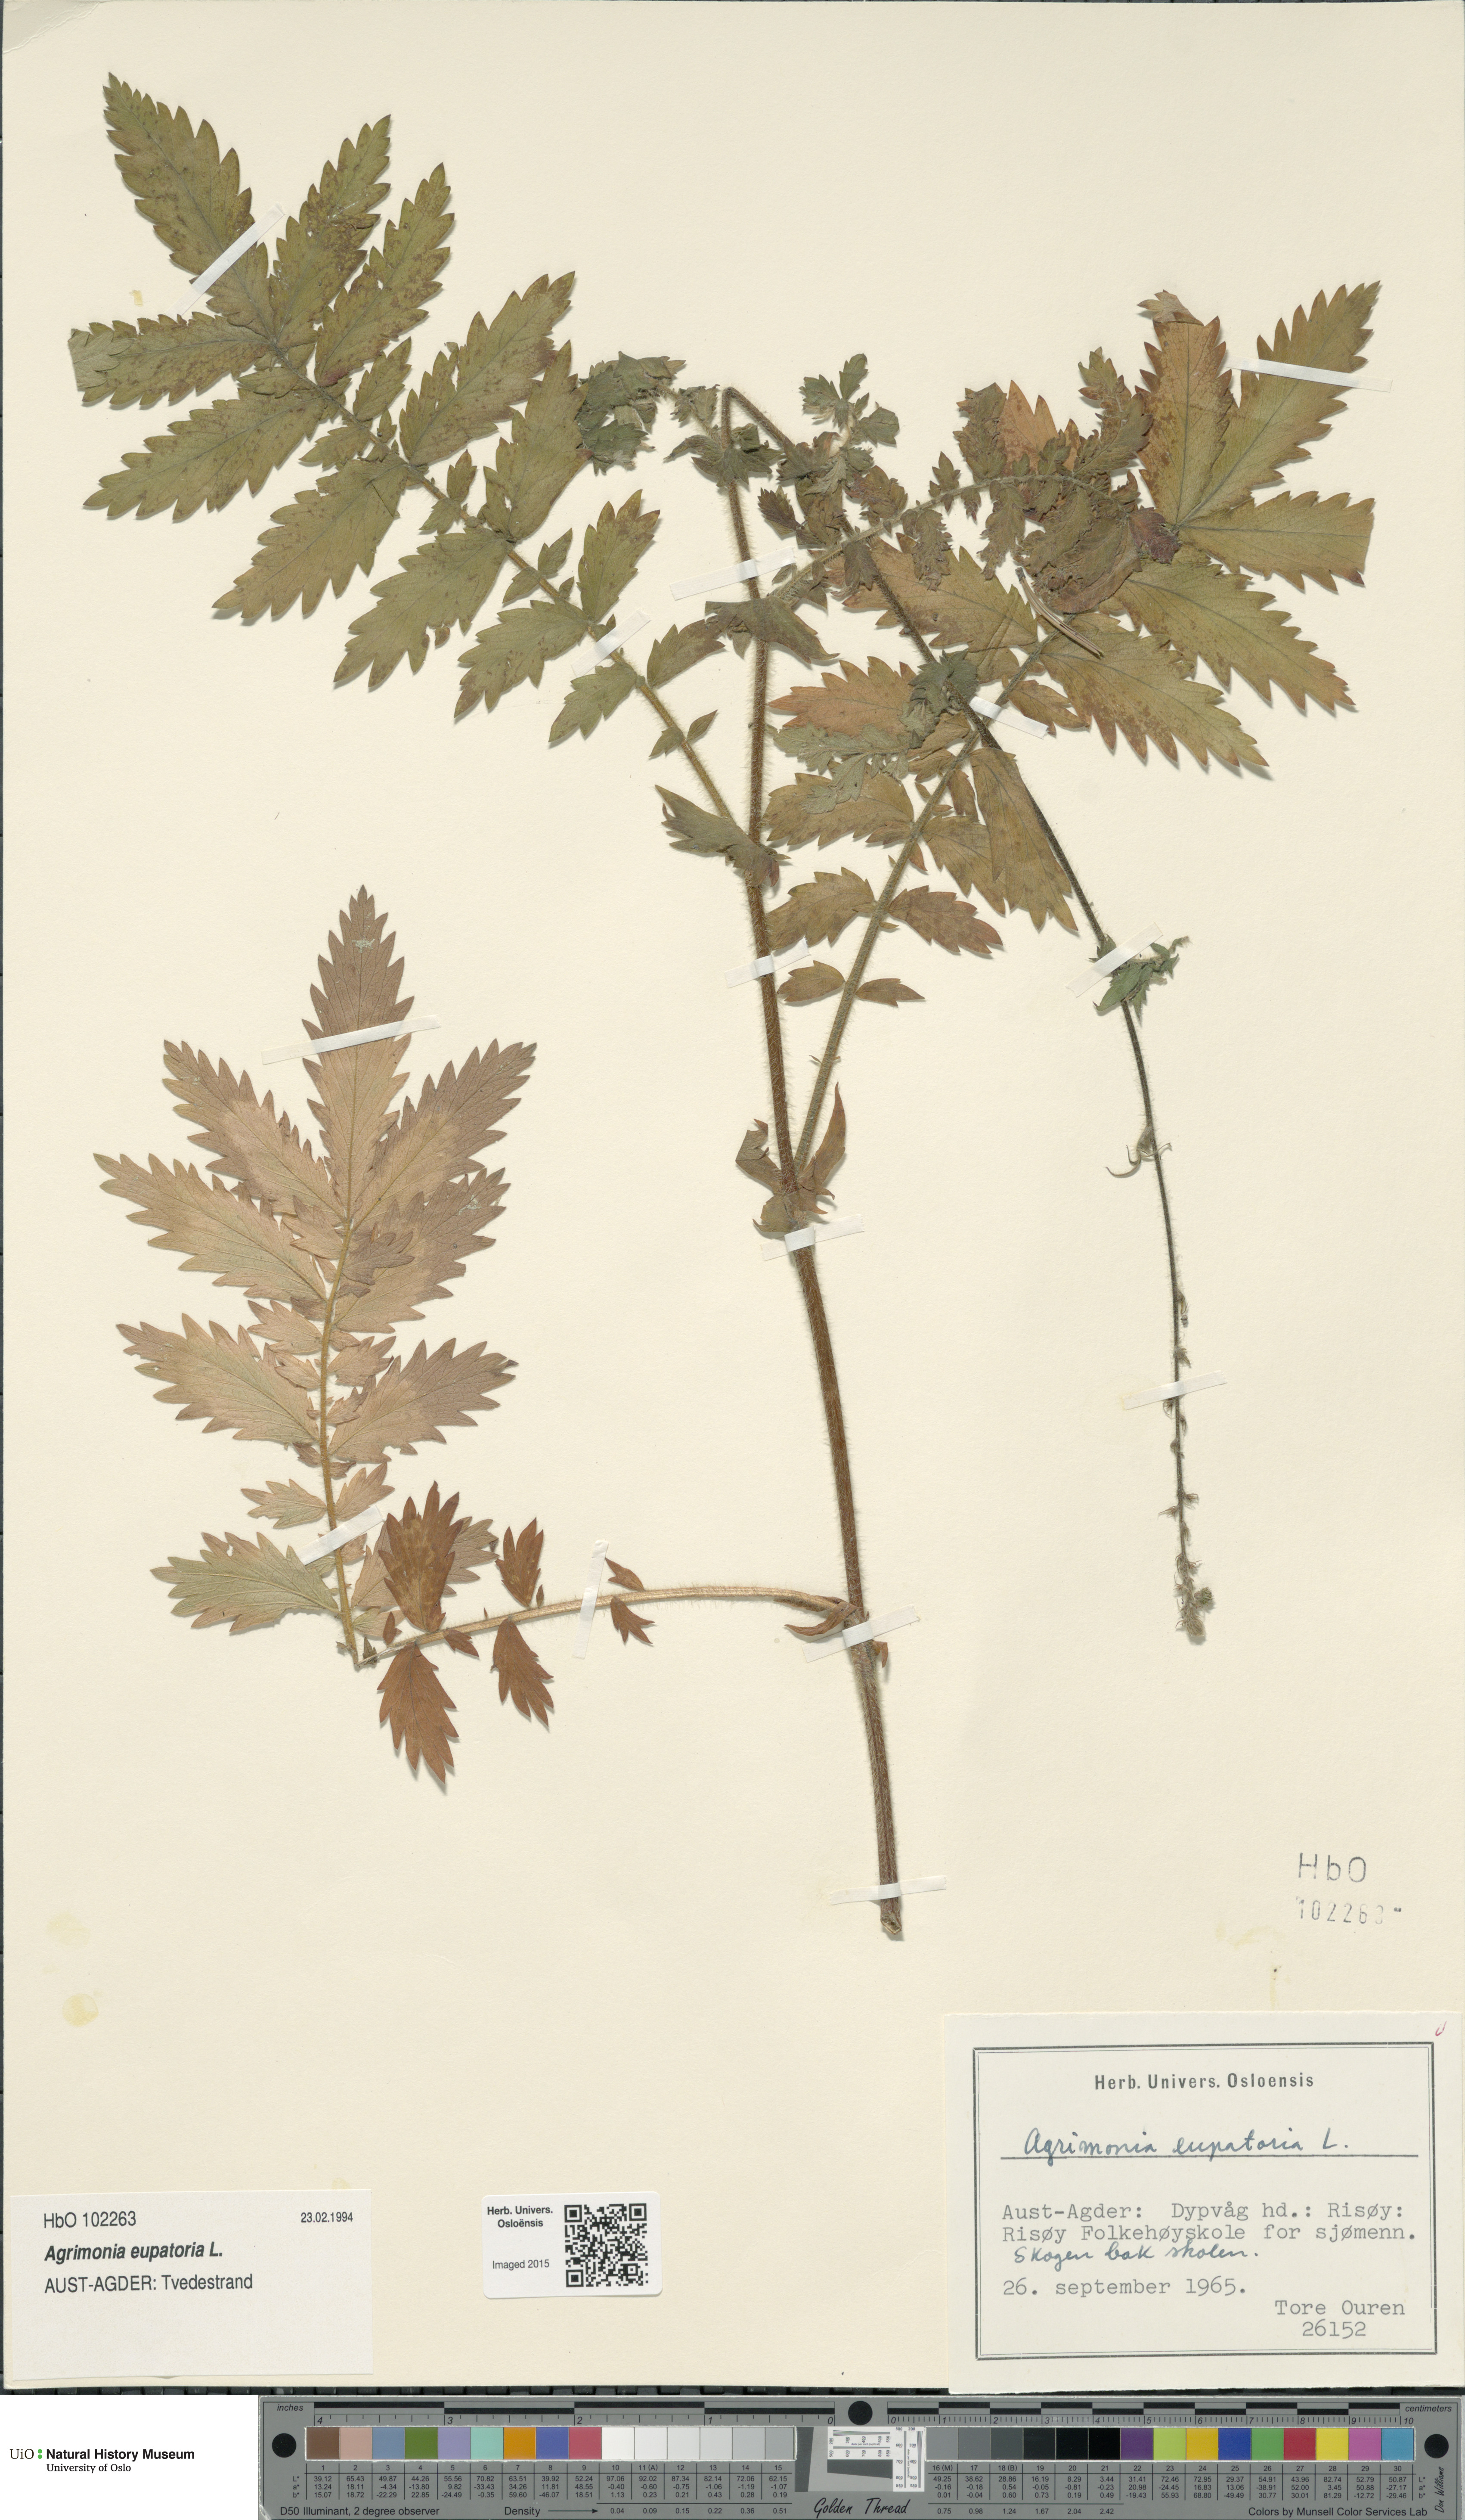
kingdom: Plantae
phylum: Tracheophyta
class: Magnoliopsida
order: Rosales
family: Rosaceae
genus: Agrimonia
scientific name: Agrimonia eupatoria
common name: Agrimony
